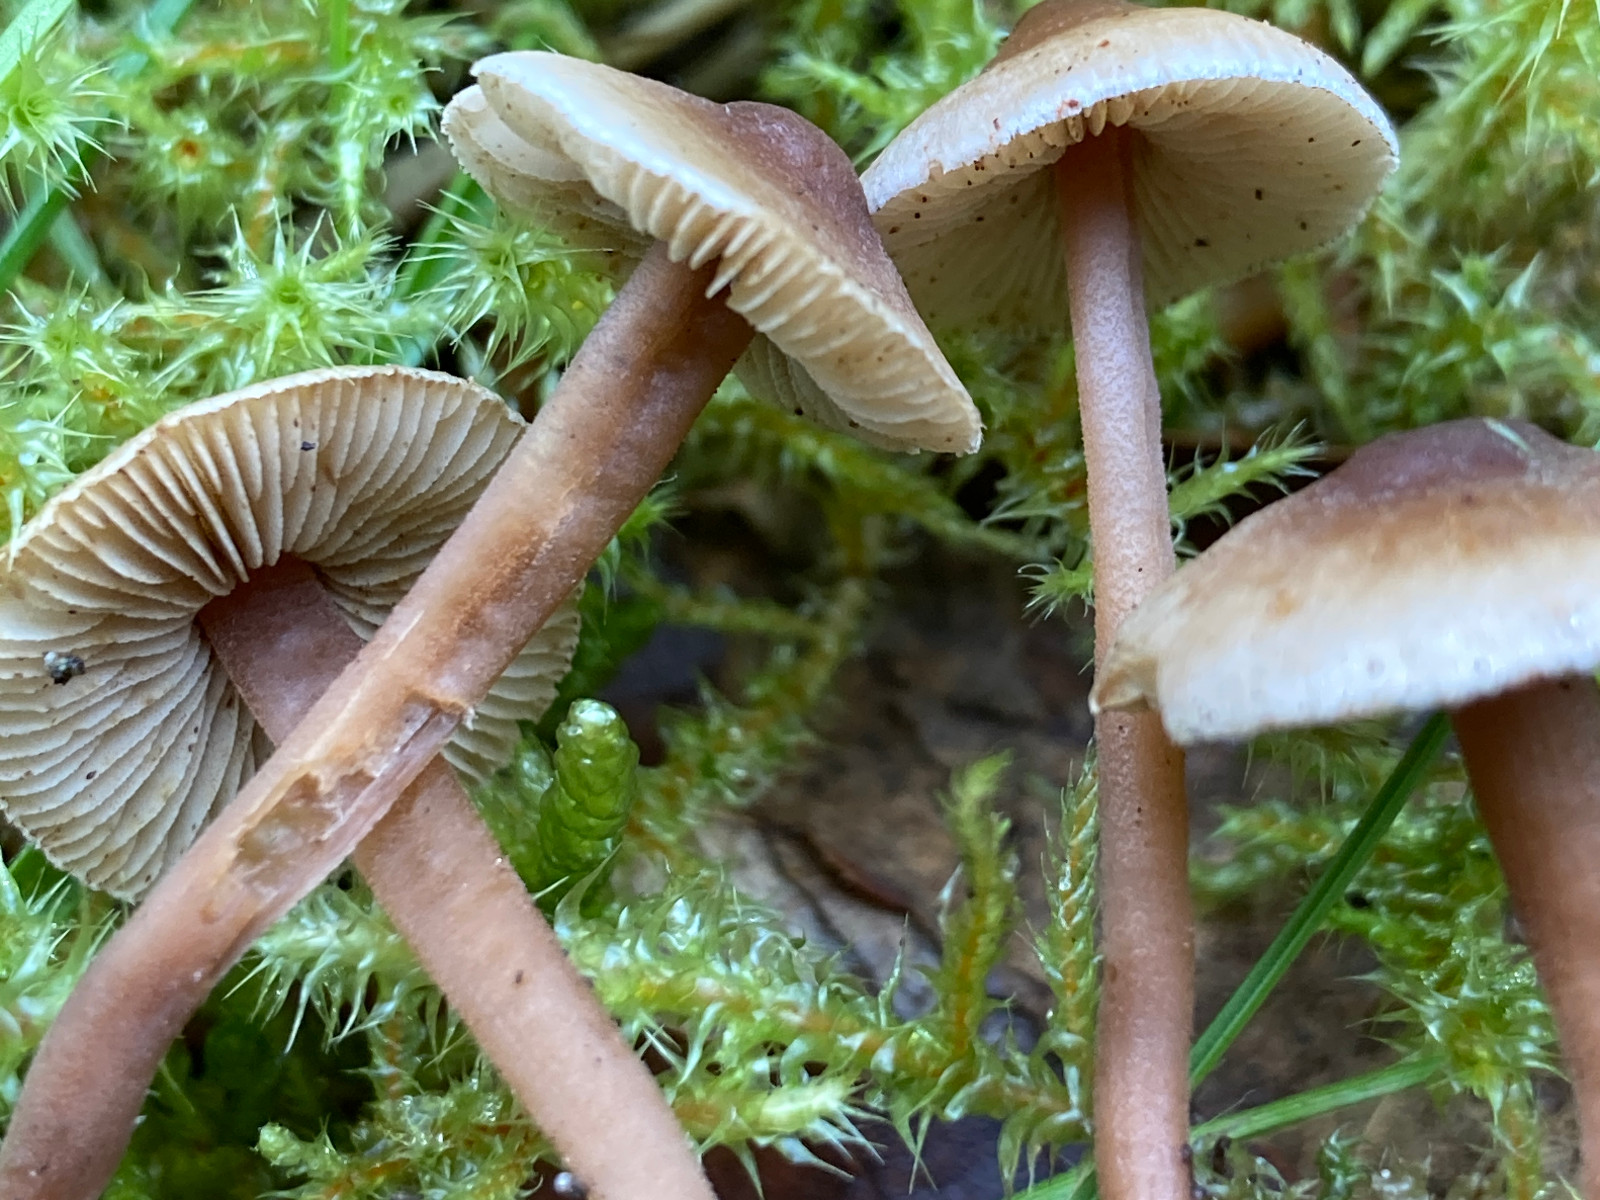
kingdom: Fungi
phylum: Basidiomycota
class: Agaricomycetes
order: Agaricales
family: Inocybaceae
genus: Inocybe
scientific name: Inocybe petiginosa
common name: liden trævlhat
